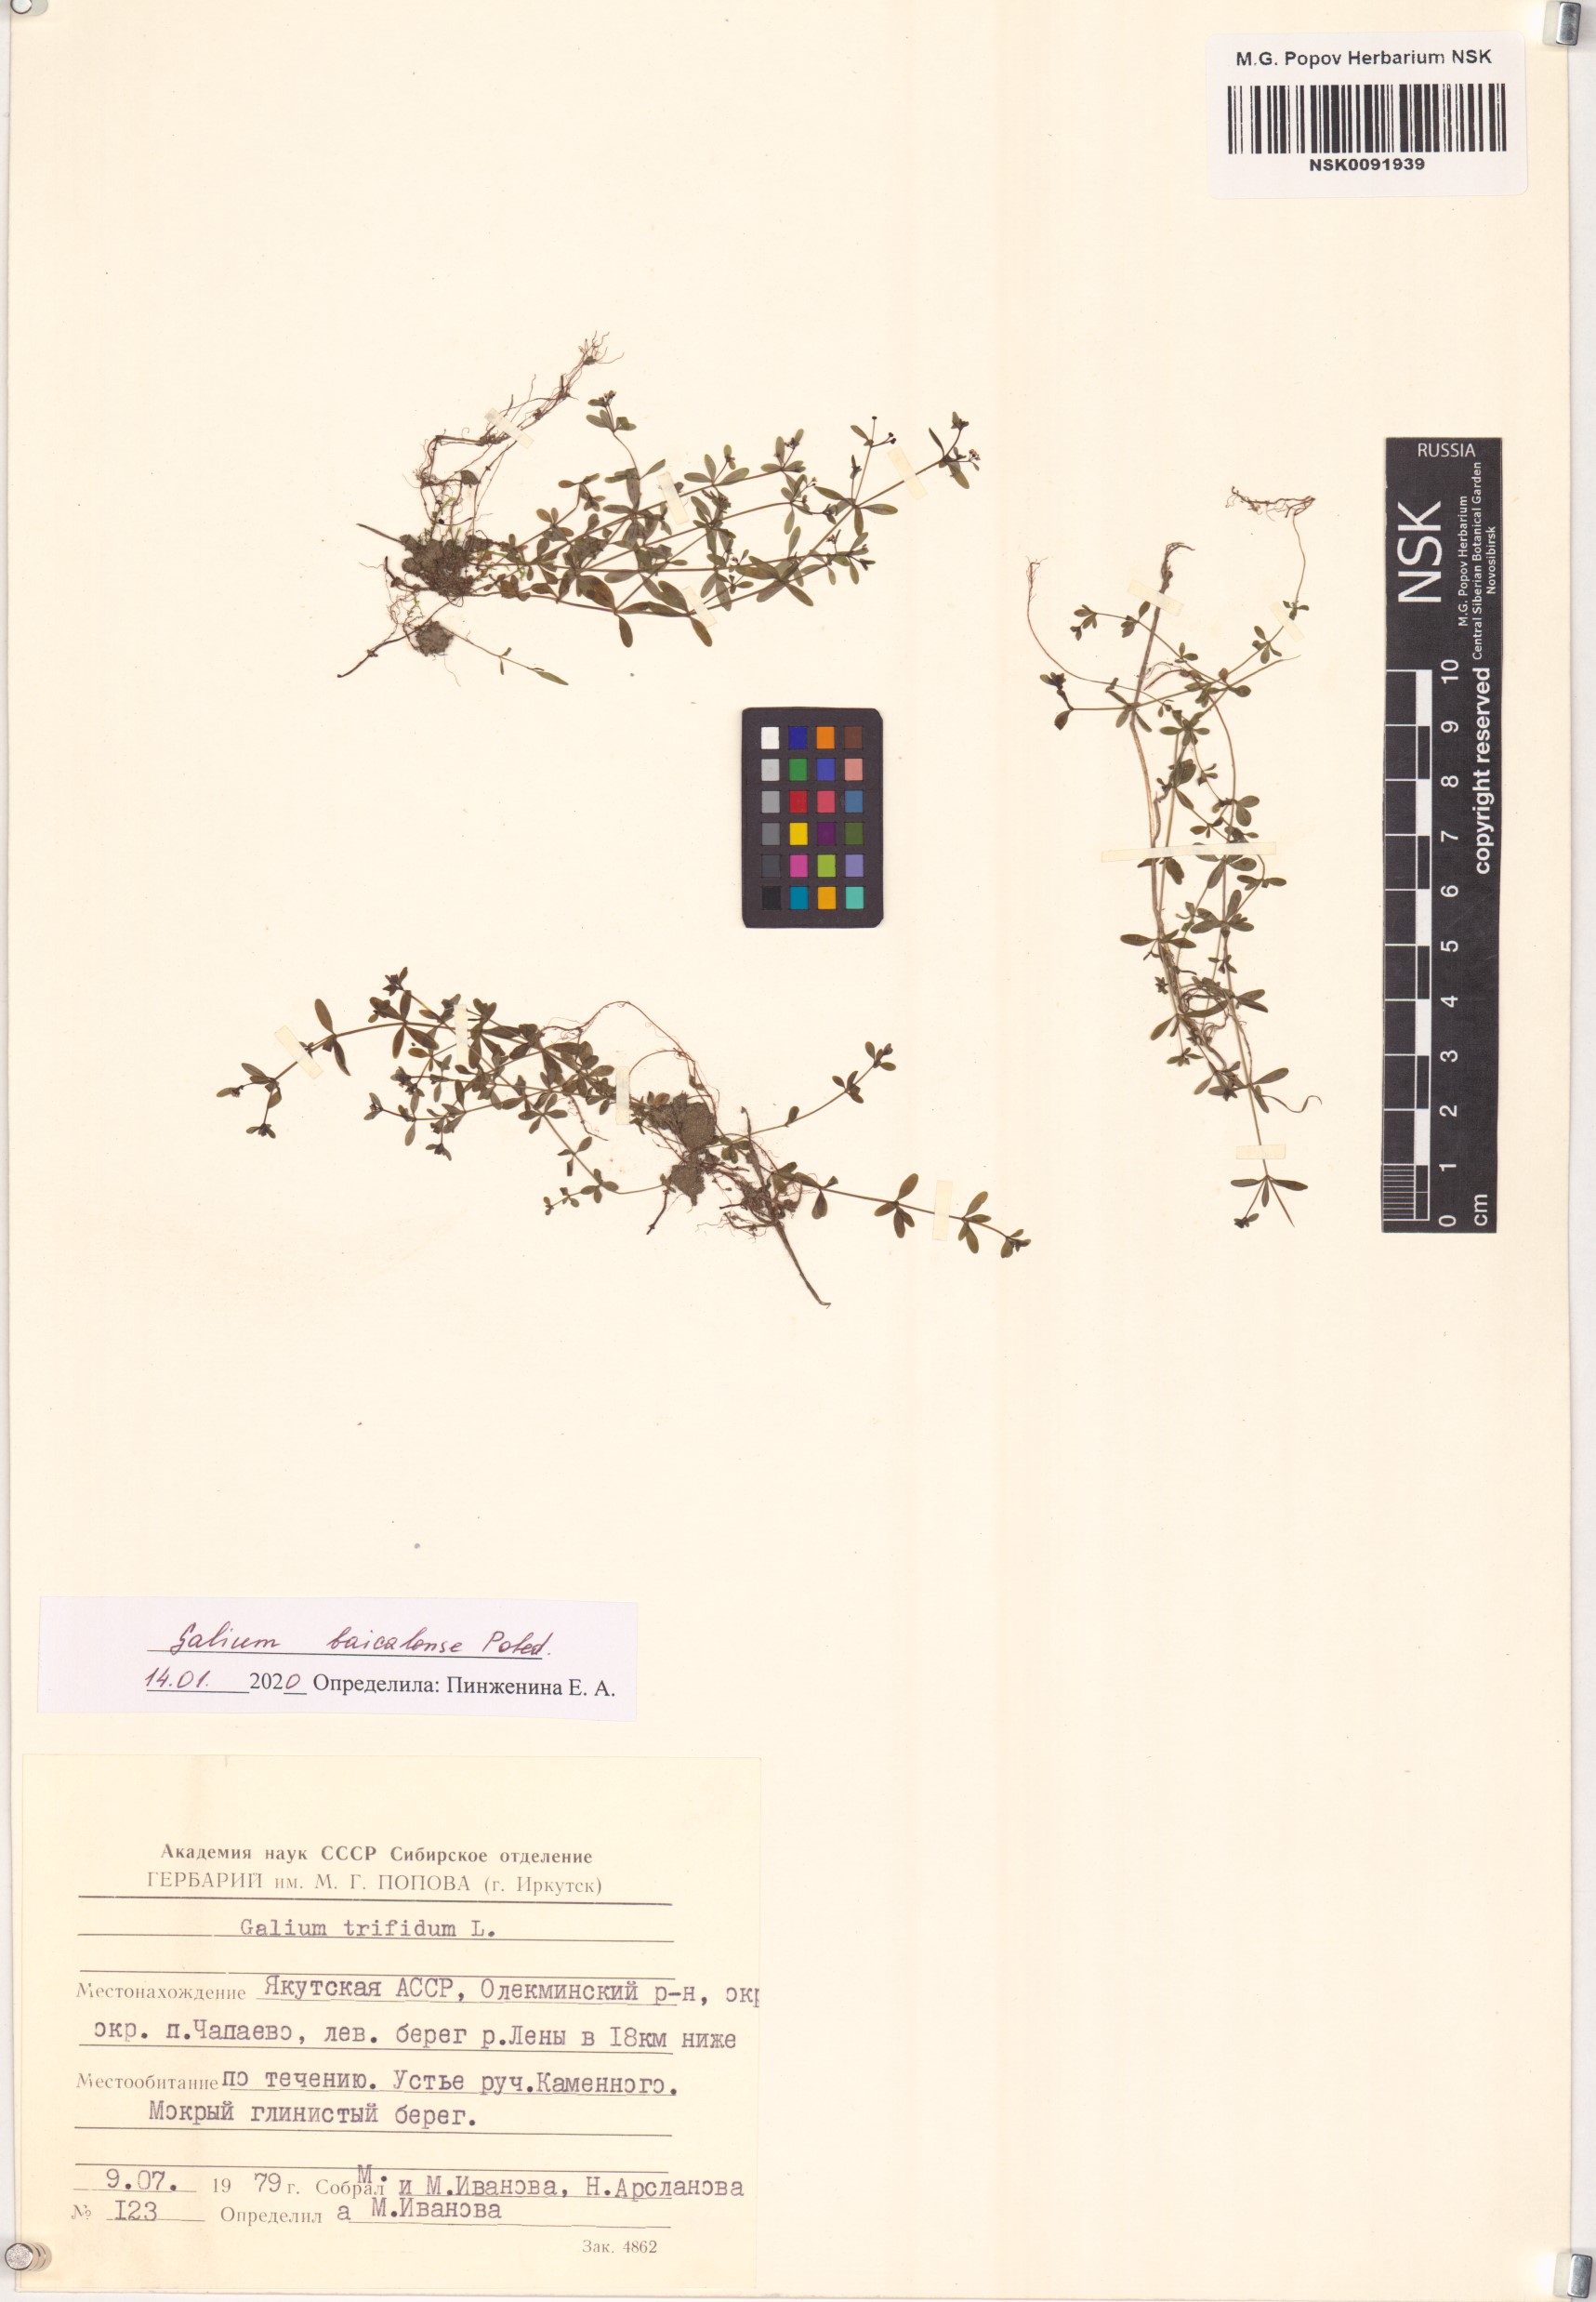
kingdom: Plantae
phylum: Tracheophyta
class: Magnoliopsida
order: Gentianales
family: Rubiaceae
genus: Galium
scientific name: Galium trifidum
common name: Small bedstraw
